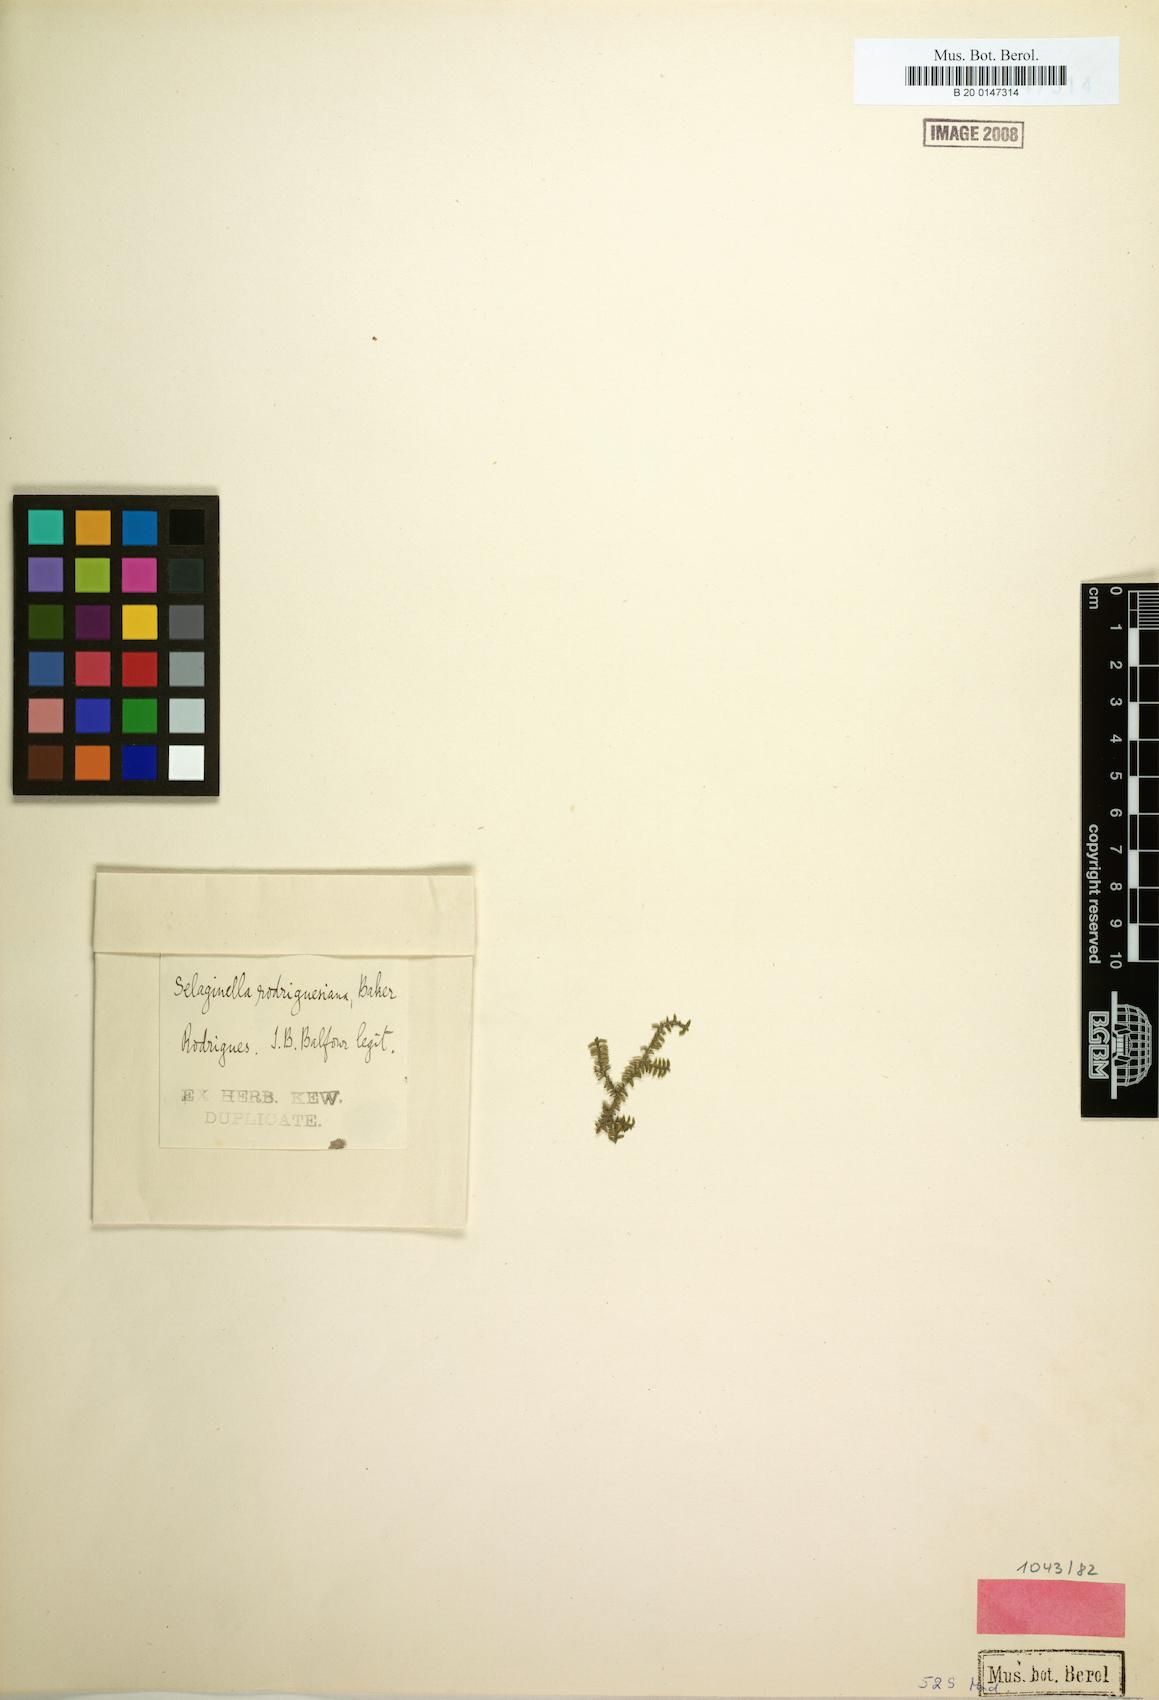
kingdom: Plantae
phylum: Tracheophyta
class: Lycopodiopsida
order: Selaginellales
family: Selaginellaceae
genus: Selaginella
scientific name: Selaginella rodriguesiana
